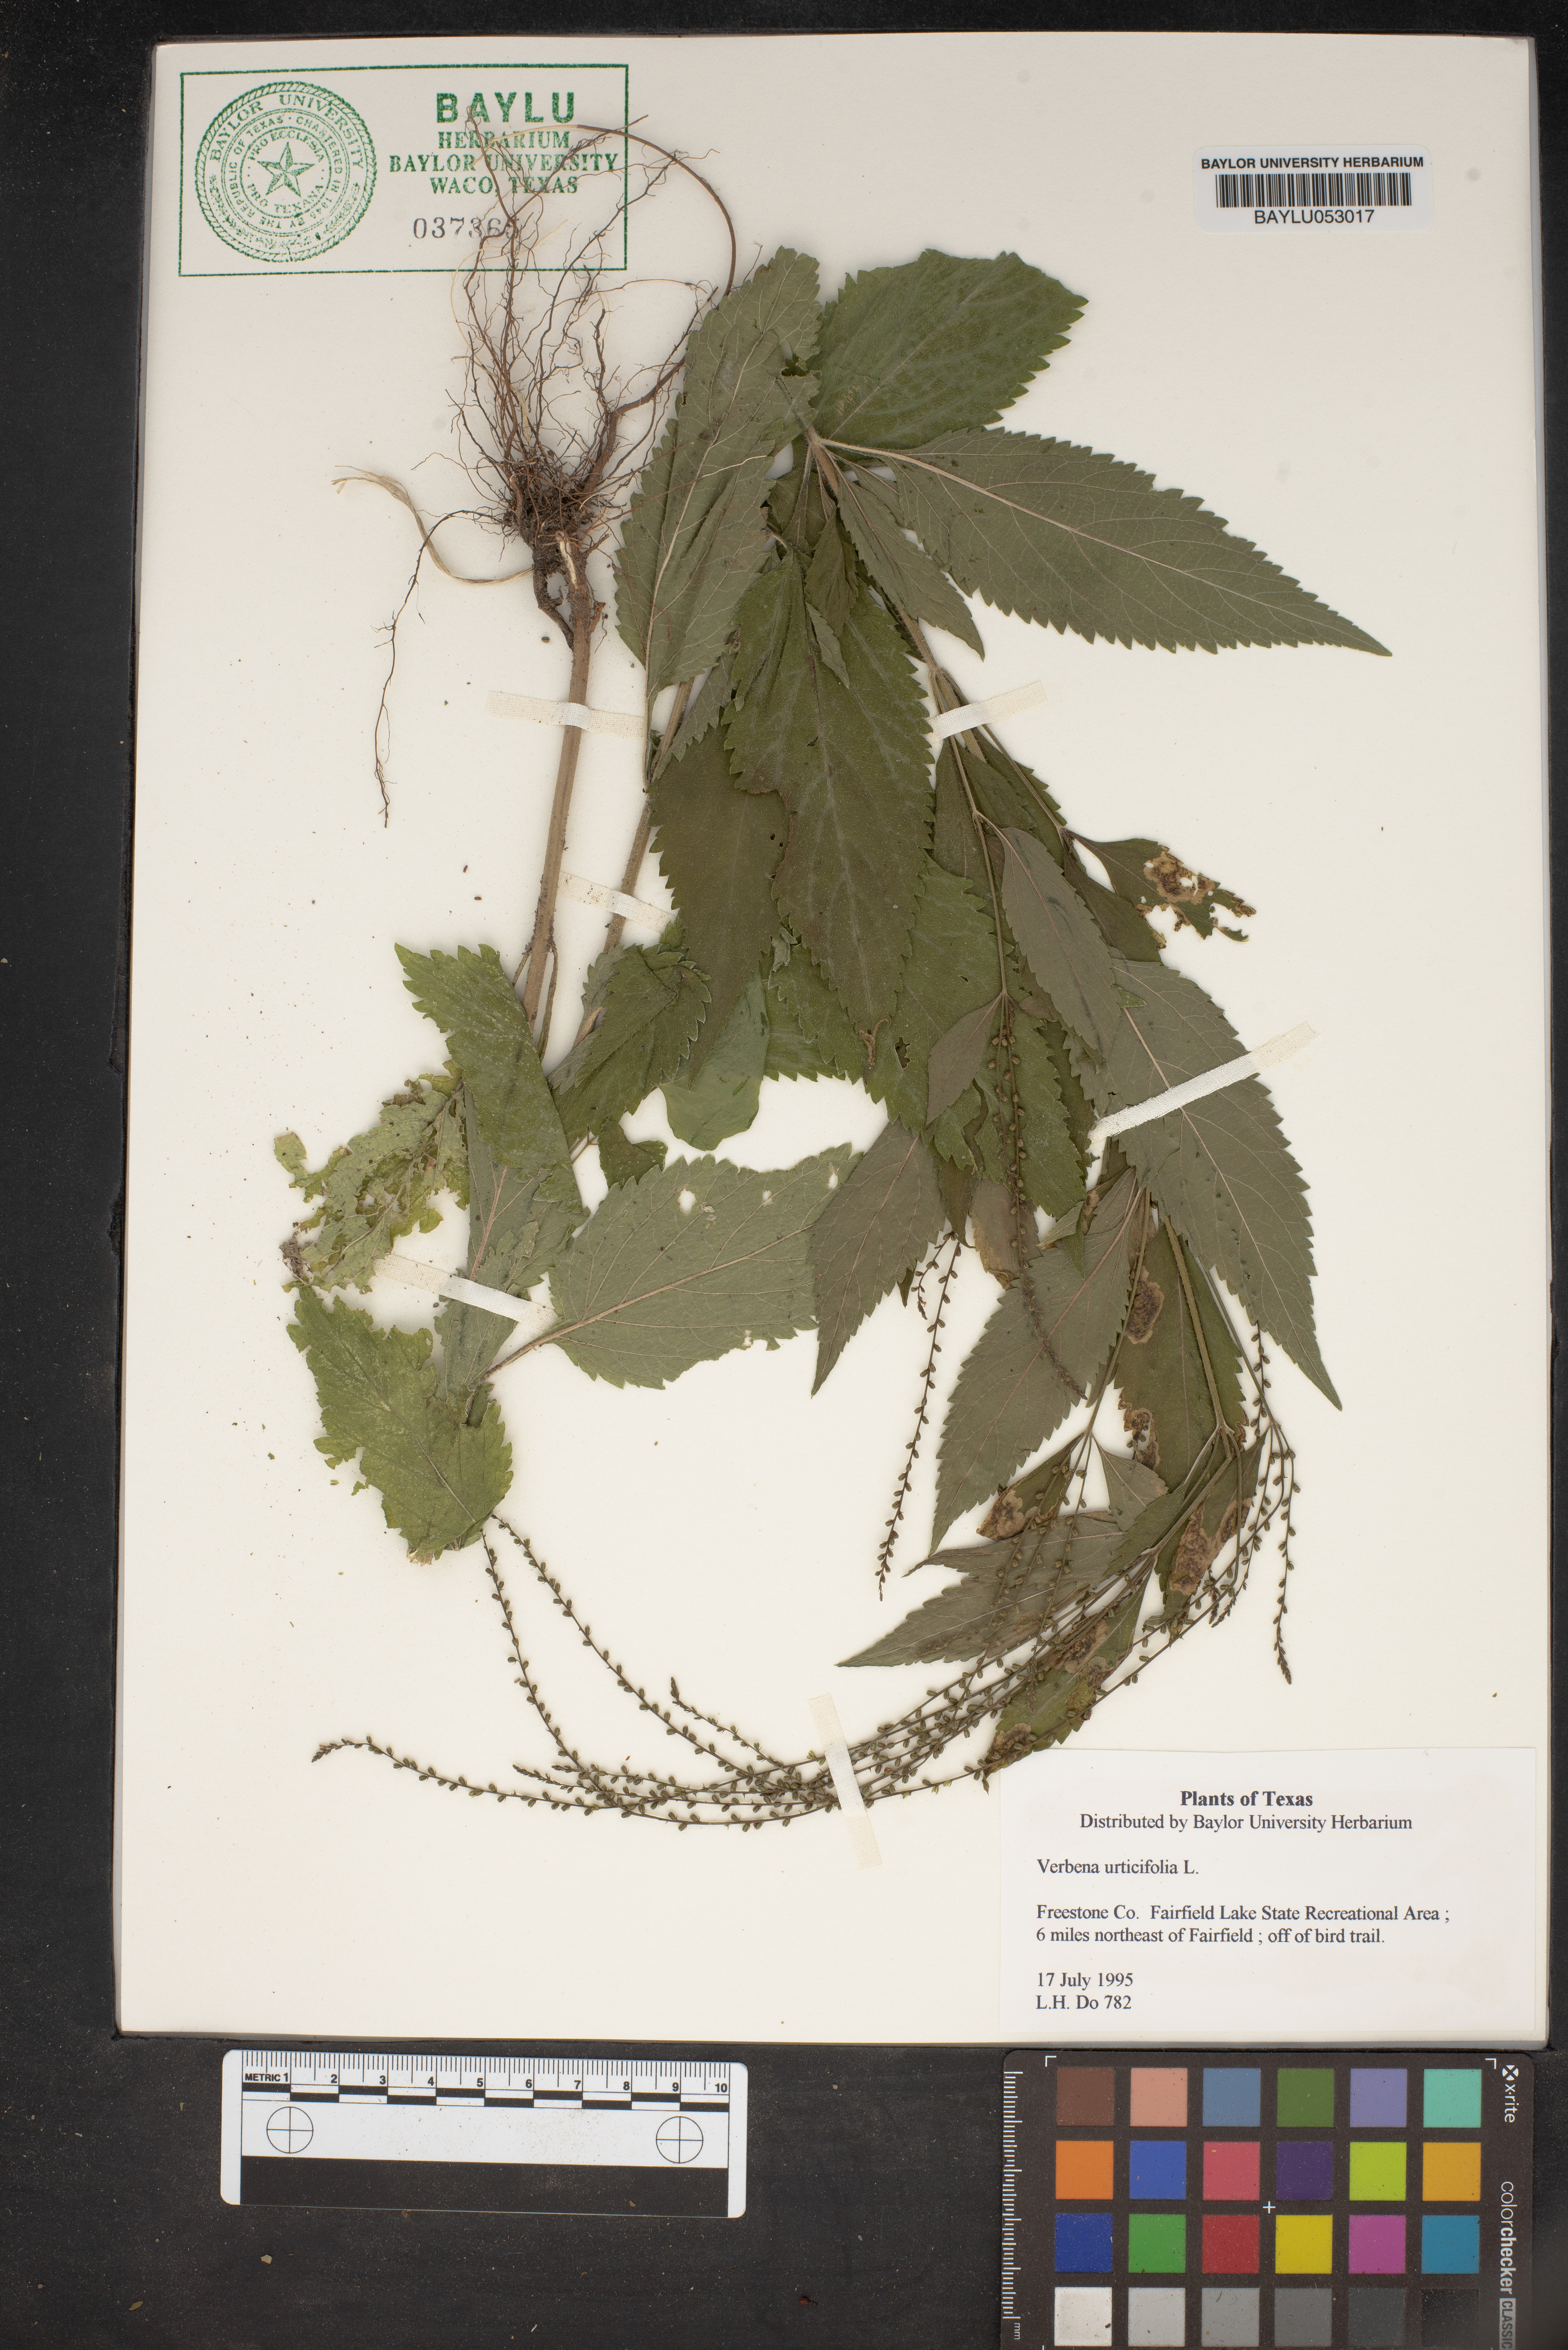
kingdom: Plantae
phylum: Tracheophyta
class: Magnoliopsida
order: Lamiales
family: Verbenaceae
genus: Verbena
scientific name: Verbena urticifolia
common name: Nettle-leaved vervain
